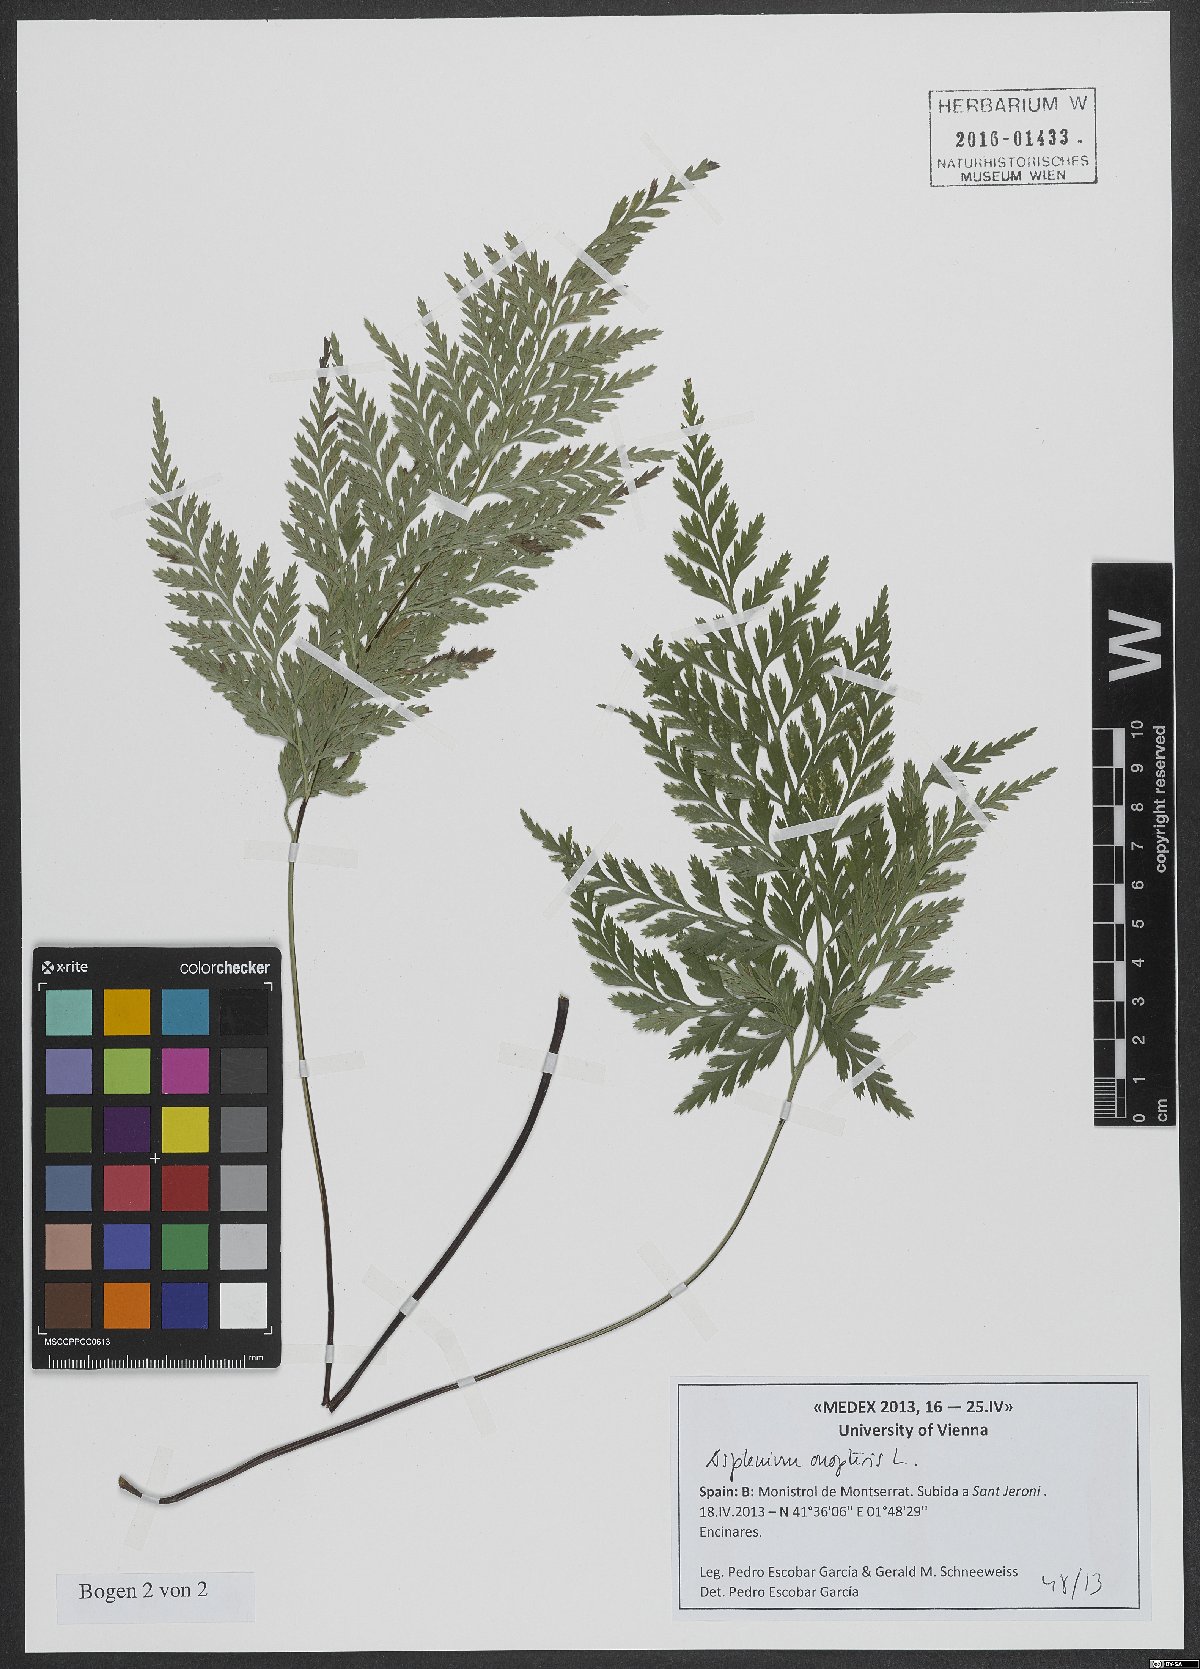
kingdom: Plantae
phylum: Tracheophyta
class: Polypodiopsida
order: Polypodiales
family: Aspleniaceae
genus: Asplenium
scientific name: Asplenium onopteris
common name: Irish spleenwort
